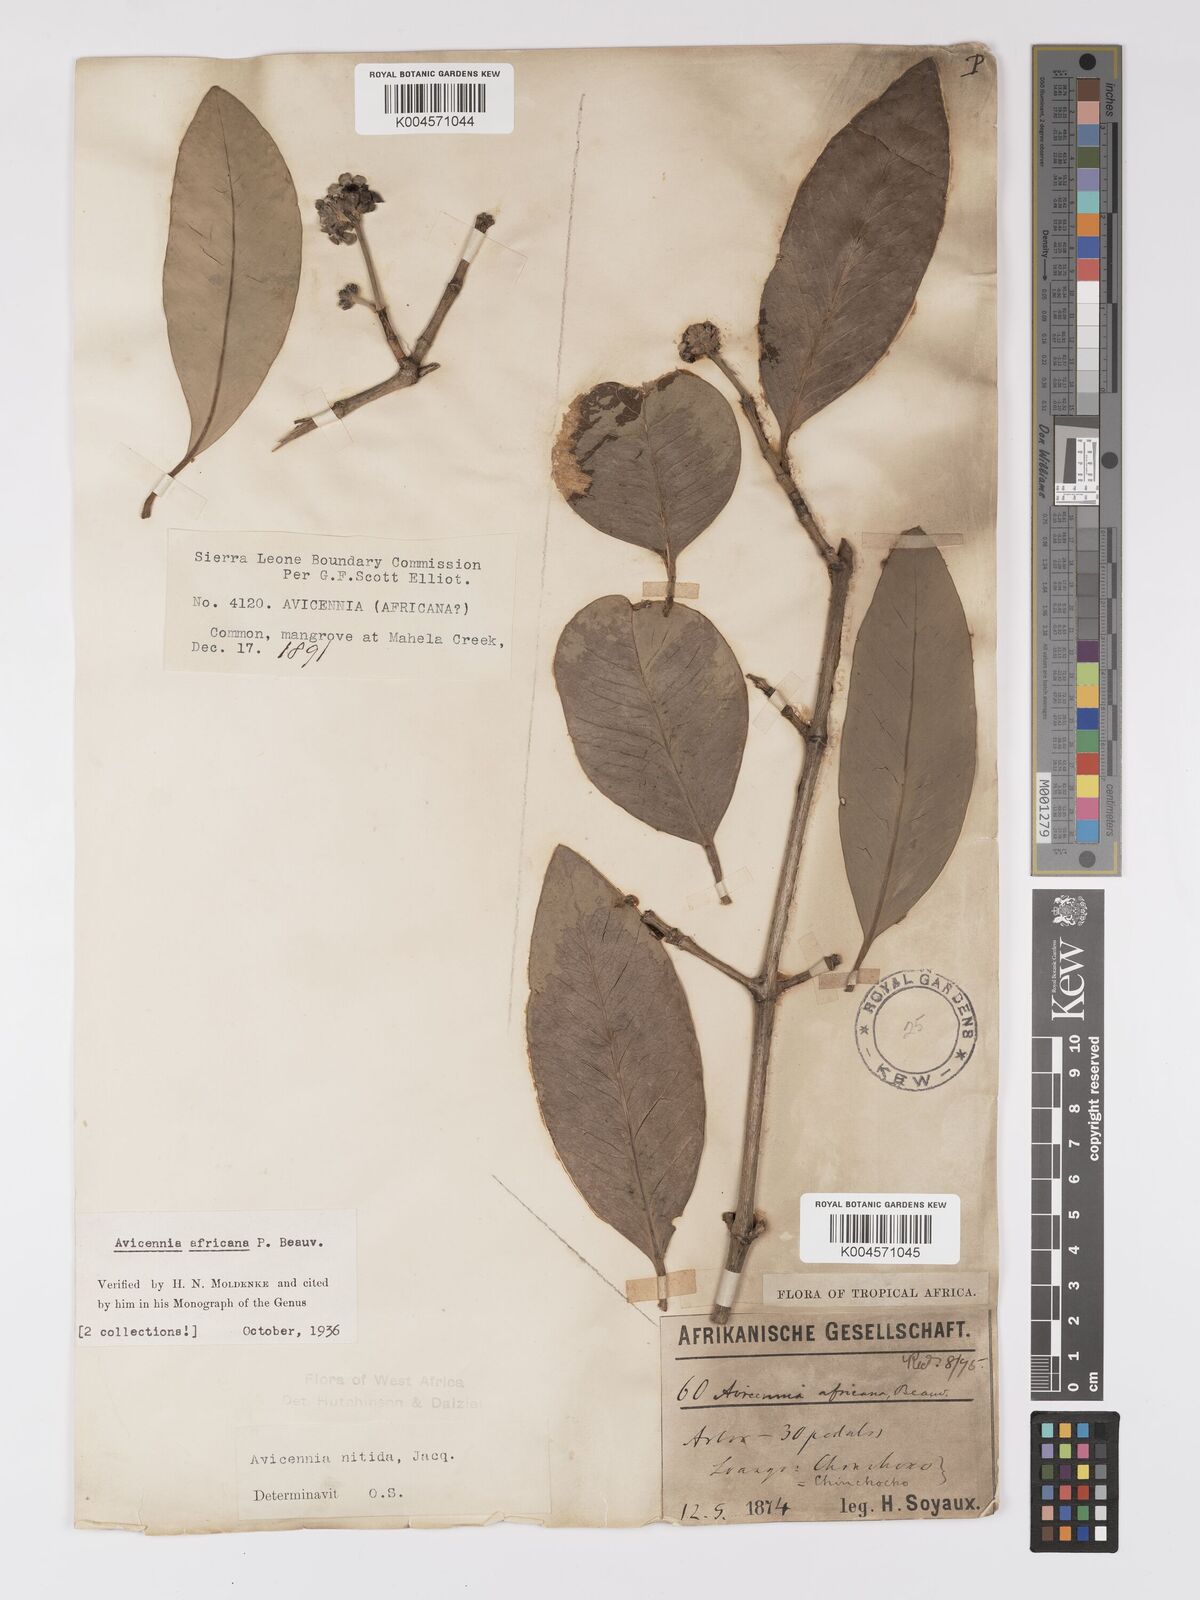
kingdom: Plantae
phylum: Tracheophyta
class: Magnoliopsida
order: Lamiales
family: Acanthaceae
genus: Avicennia
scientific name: Avicennia germinans
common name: Black mangrove
